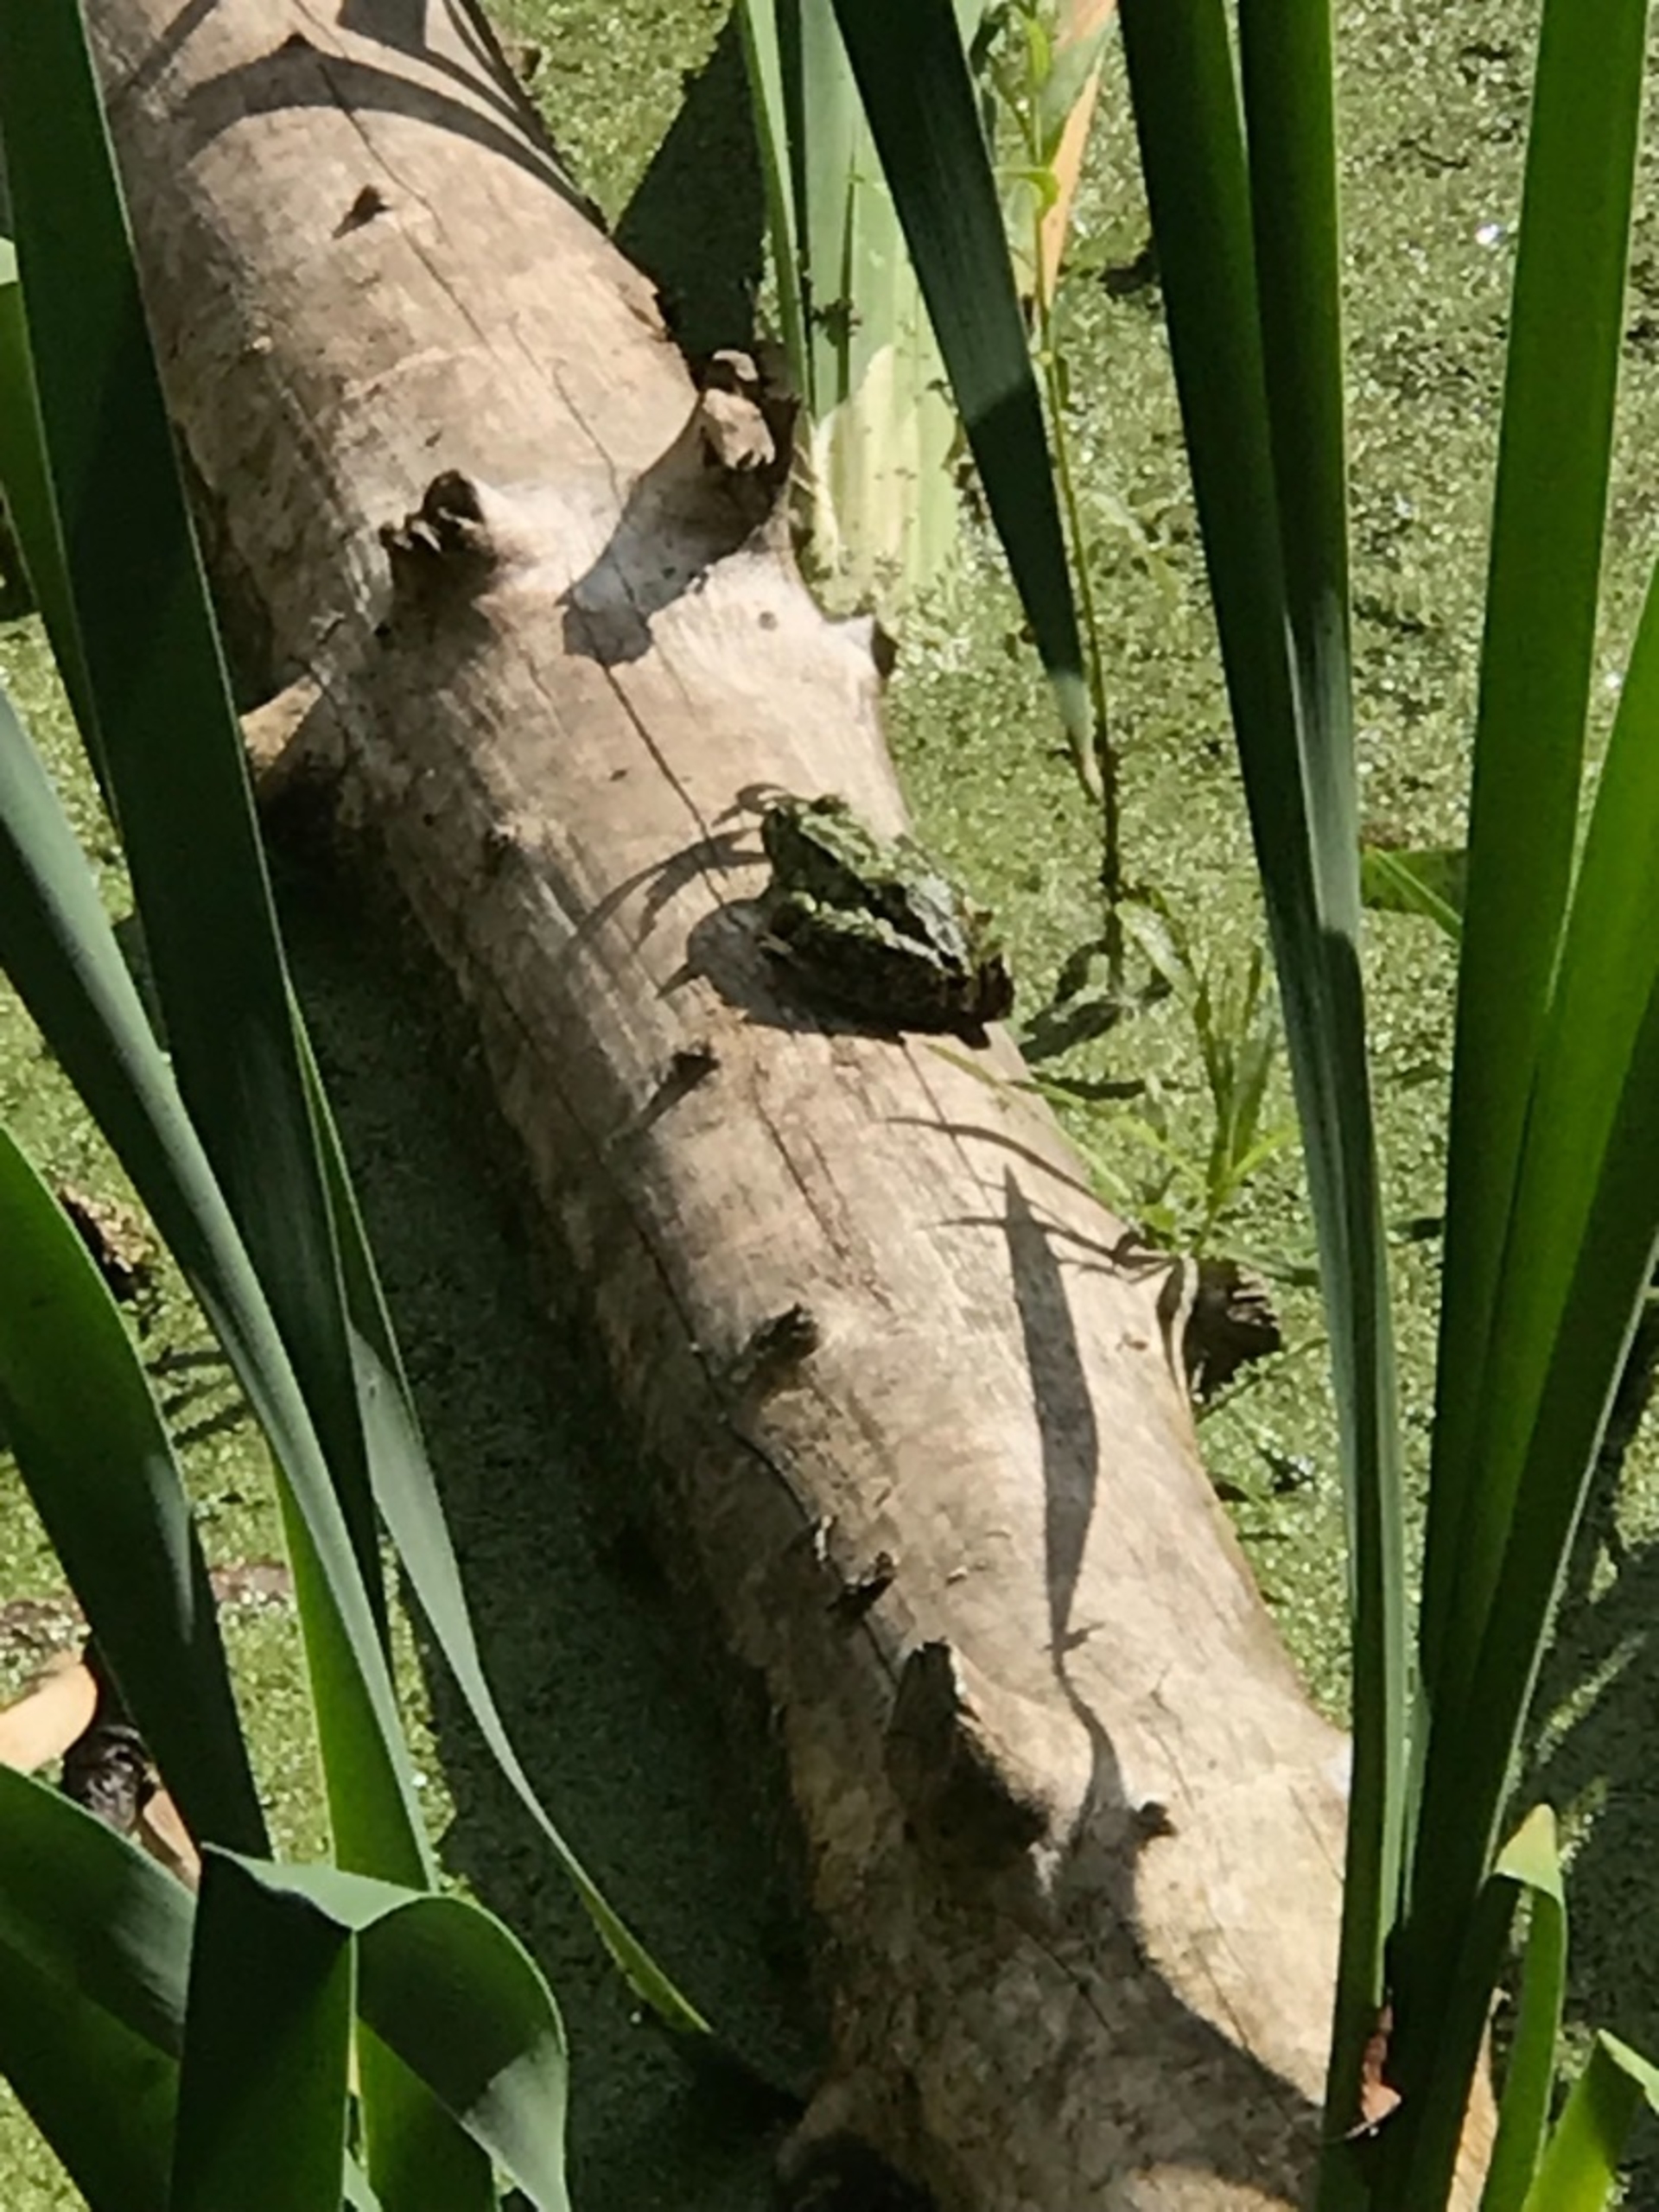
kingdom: Animalia
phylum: Chordata
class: Amphibia
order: Anura
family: Ranidae
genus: Pelophylax
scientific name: Pelophylax lessonae
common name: Grøn frø
